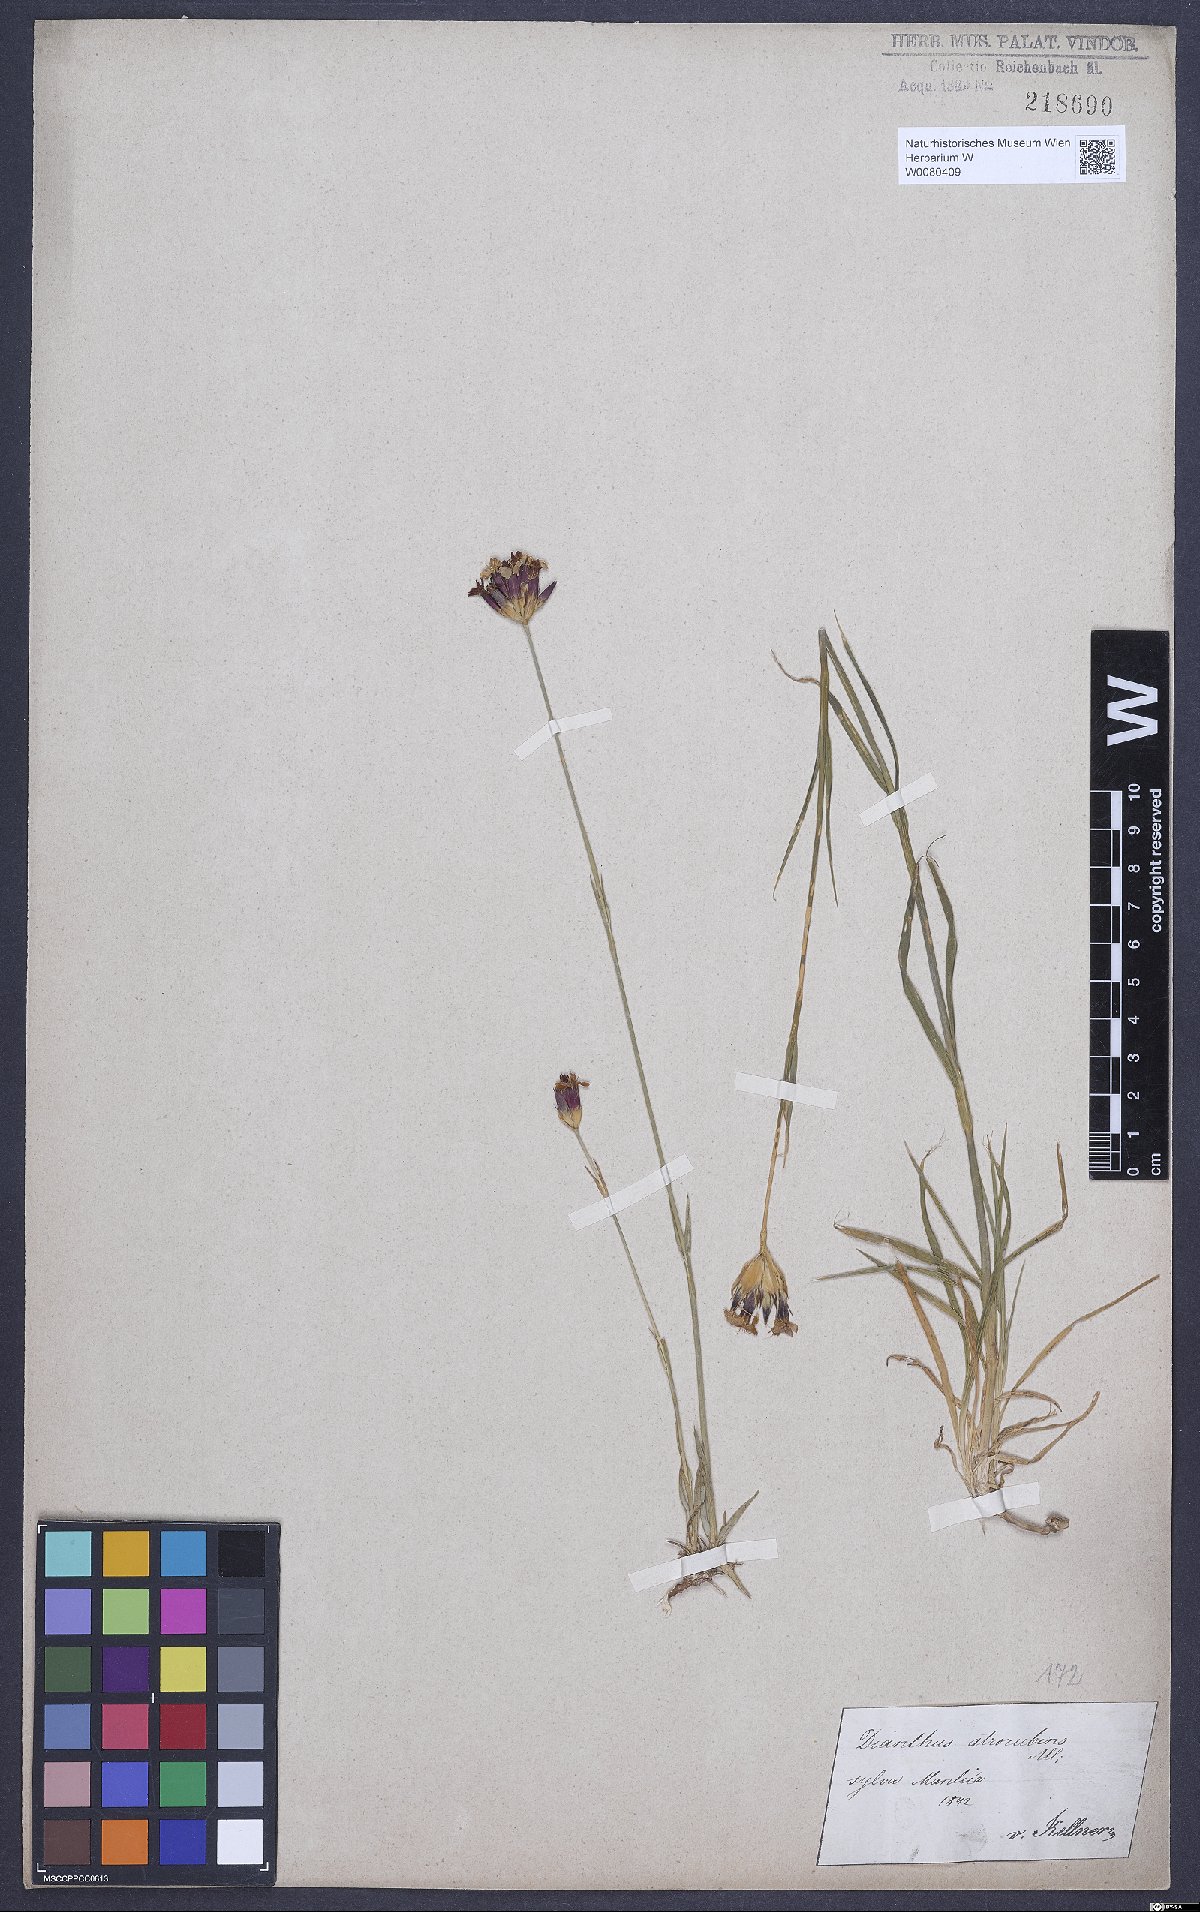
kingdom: Plantae
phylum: Tracheophyta
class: Magnoliopsida
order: Caryophyllales
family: Caryophyllaceae
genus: Dianthus
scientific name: Dianthus carthusianorum
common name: Carthusian pink
